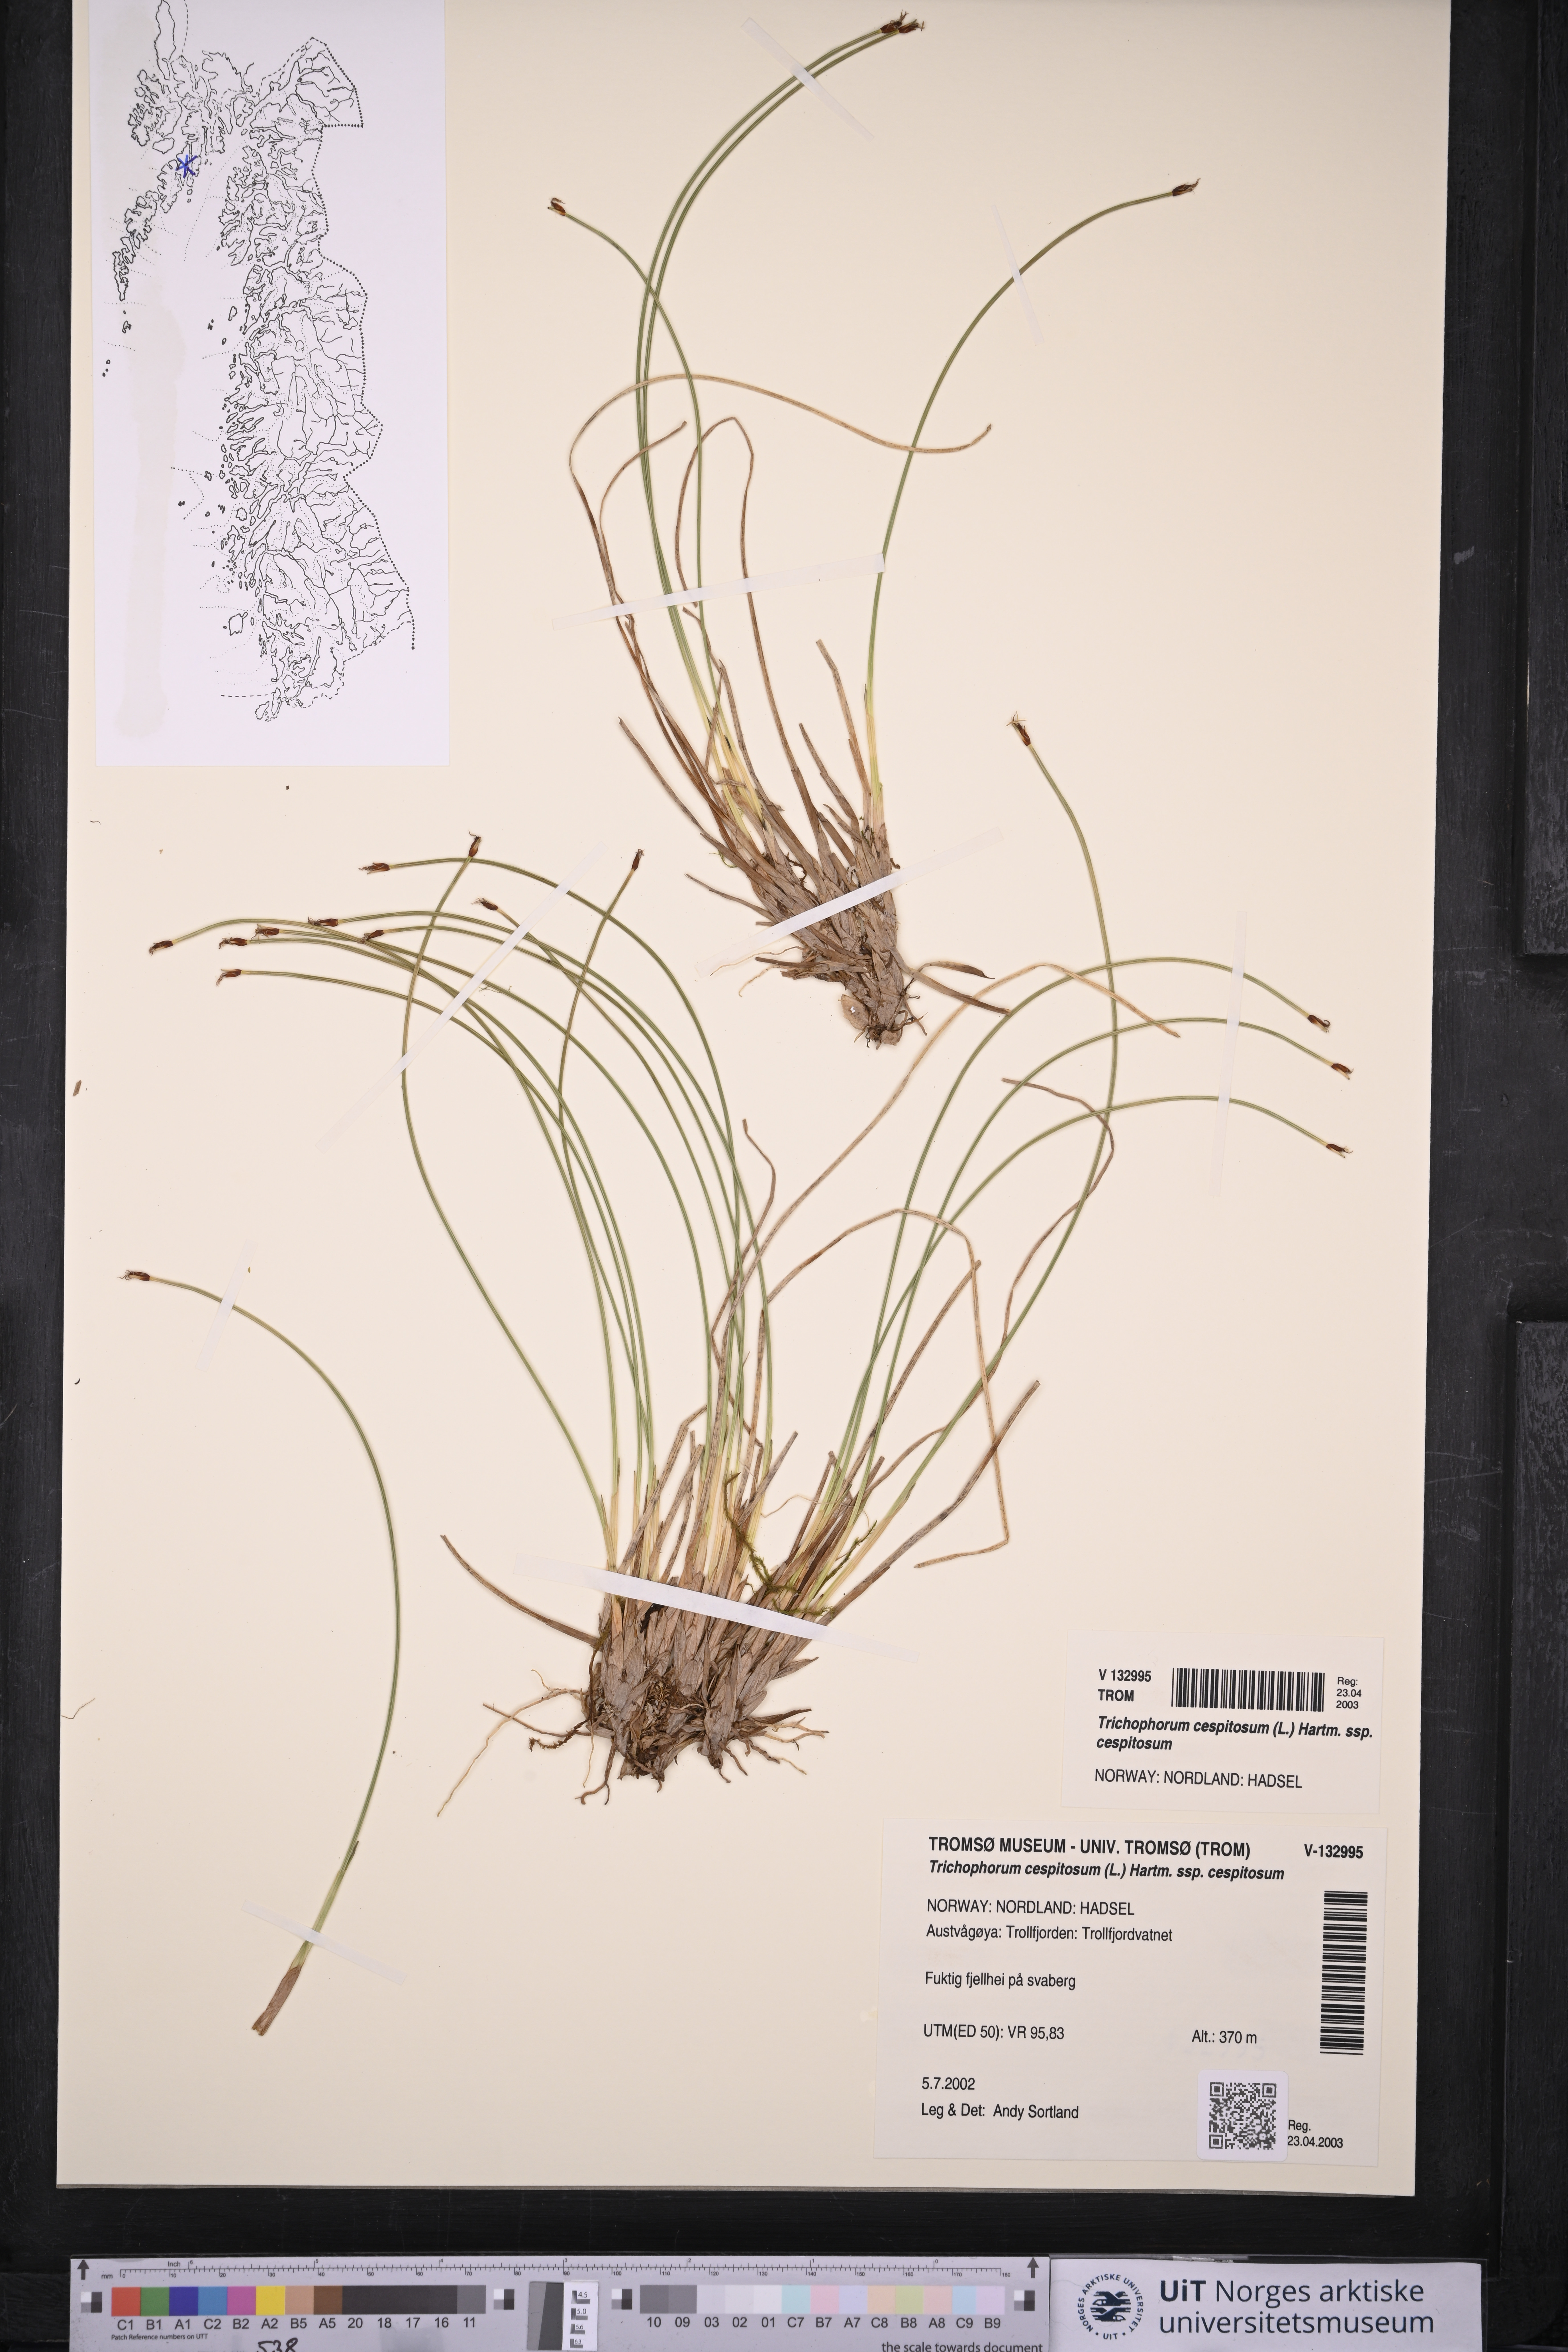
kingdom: Plantae
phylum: Tracheophyta
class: Liliopsida
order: Poales
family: Cyperaceae
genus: Trichophorum
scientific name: Trichophorum cespitosum
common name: Cespitose bulrush
